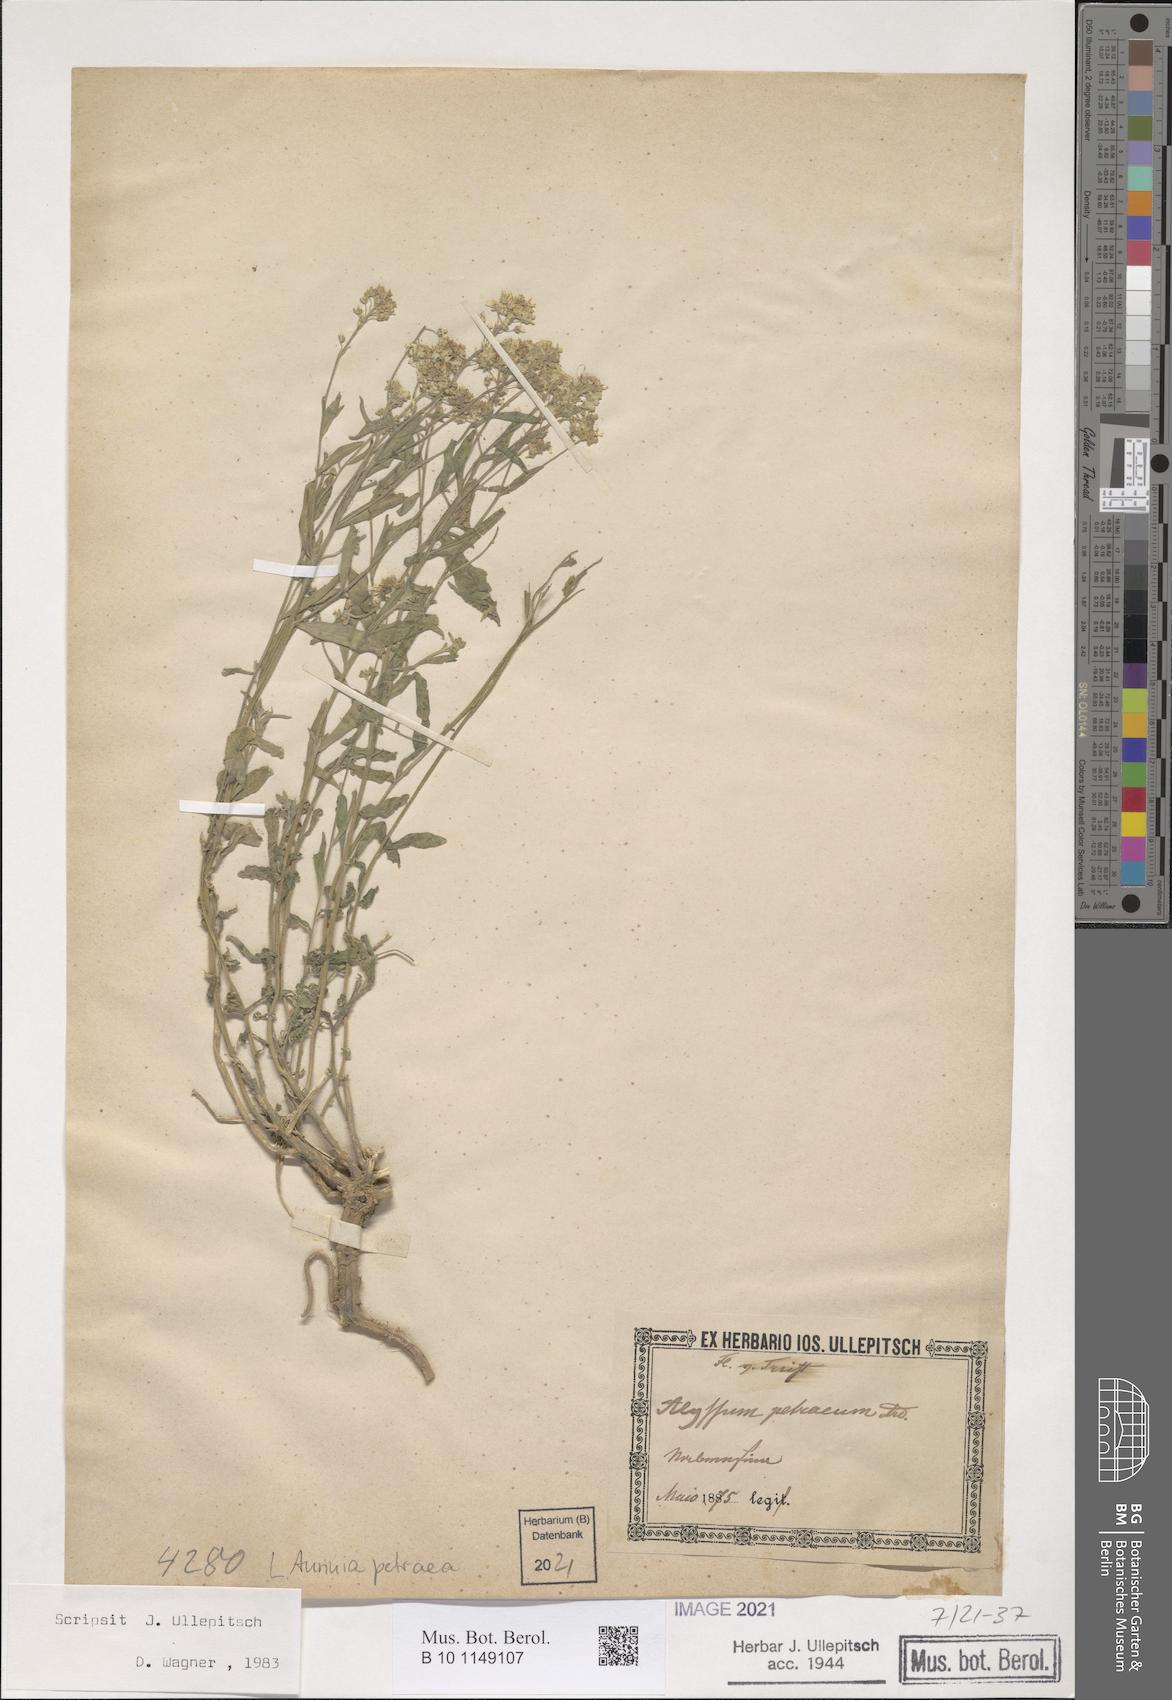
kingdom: Plantae
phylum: Tracheophyta
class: Magnoliopsida
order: Brassicales
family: Brassicaceae
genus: Aurinia
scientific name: Aurinia petraea
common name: Goldentuft
